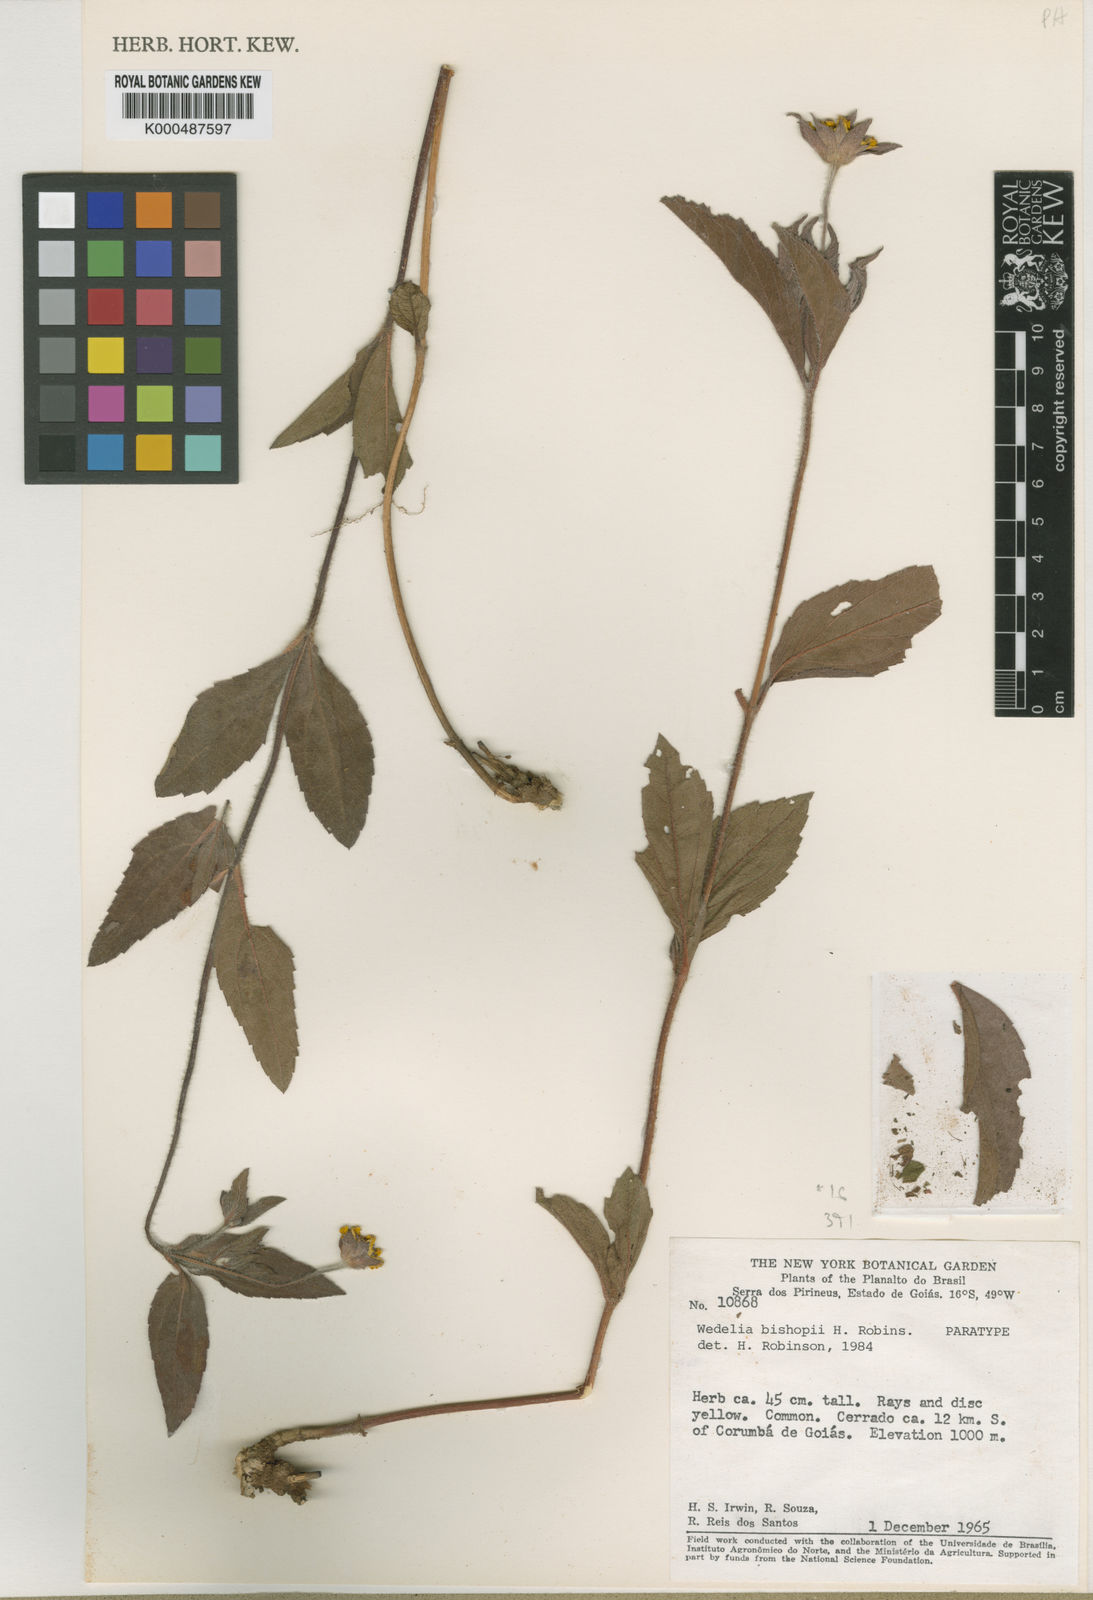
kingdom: Plantae
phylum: Tracheophyta
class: Magnoliopsida
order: Asterales
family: Asteraceae
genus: Wedelia
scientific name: Wedelia bishopii
